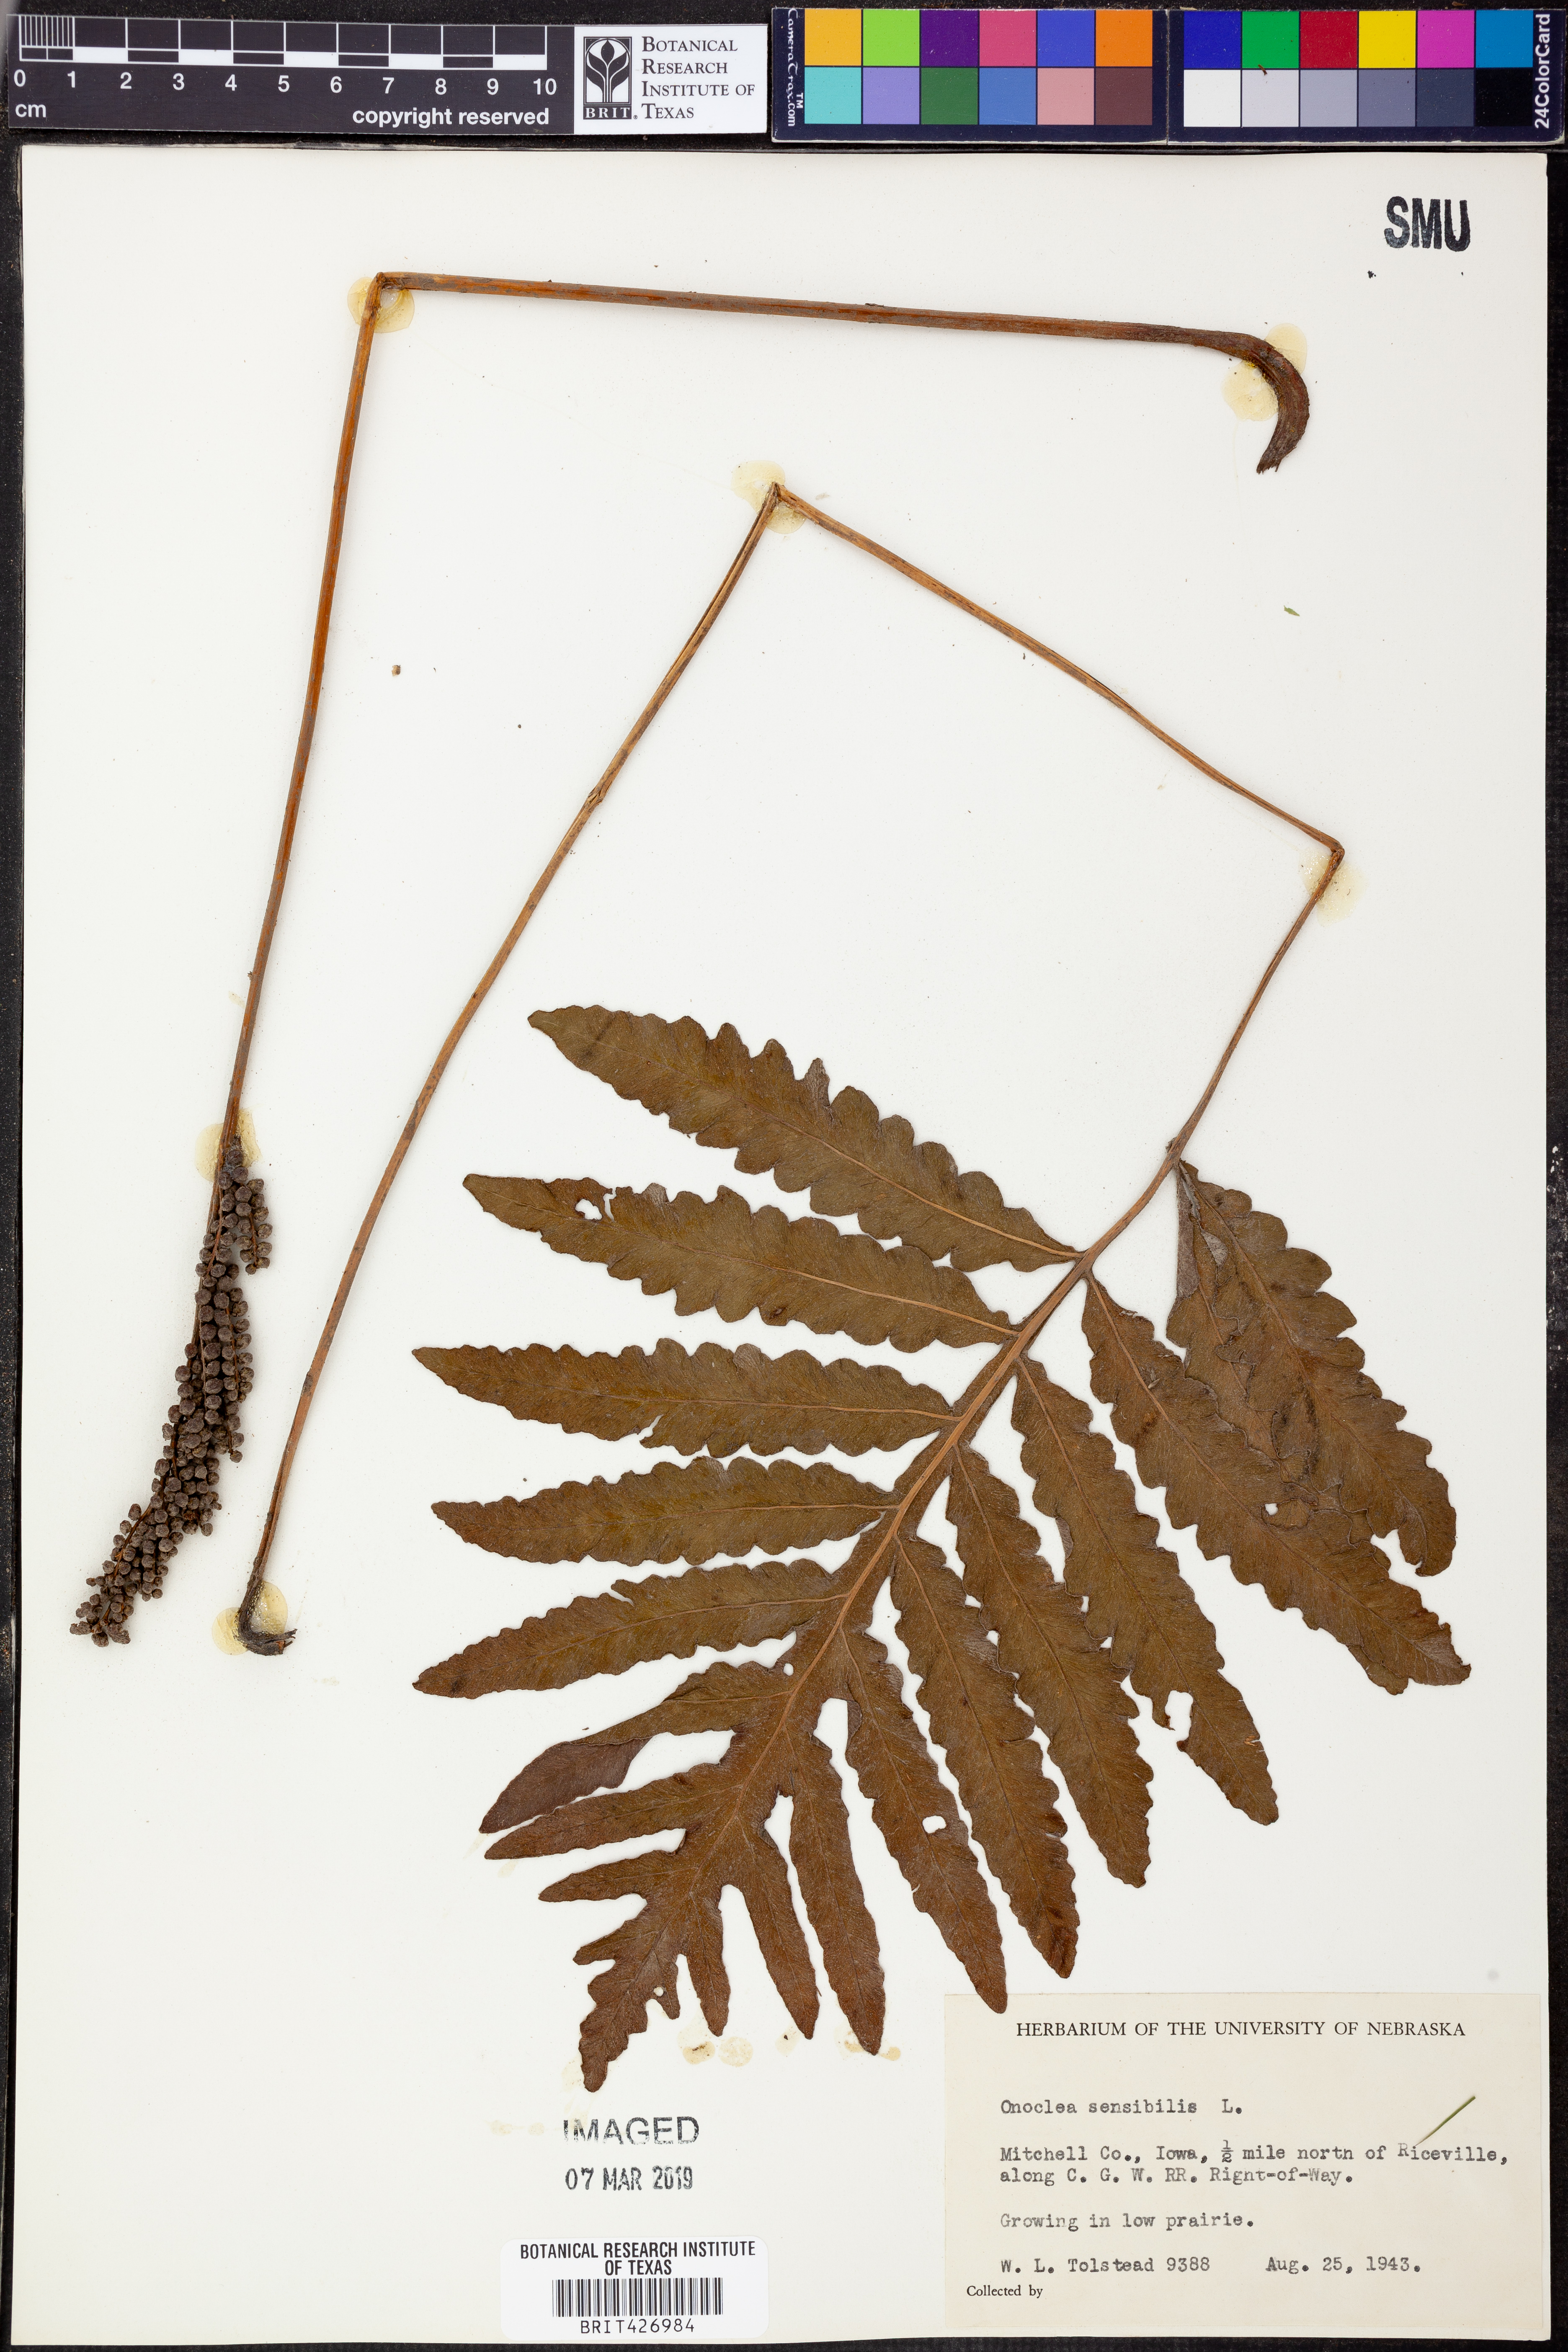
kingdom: Plantae
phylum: Tracheophyta
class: Polypodiopsida
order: Polypodiales
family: Onocleaceae
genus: Onoclea
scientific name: Onoclea sensibilis
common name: Sensitive fern
